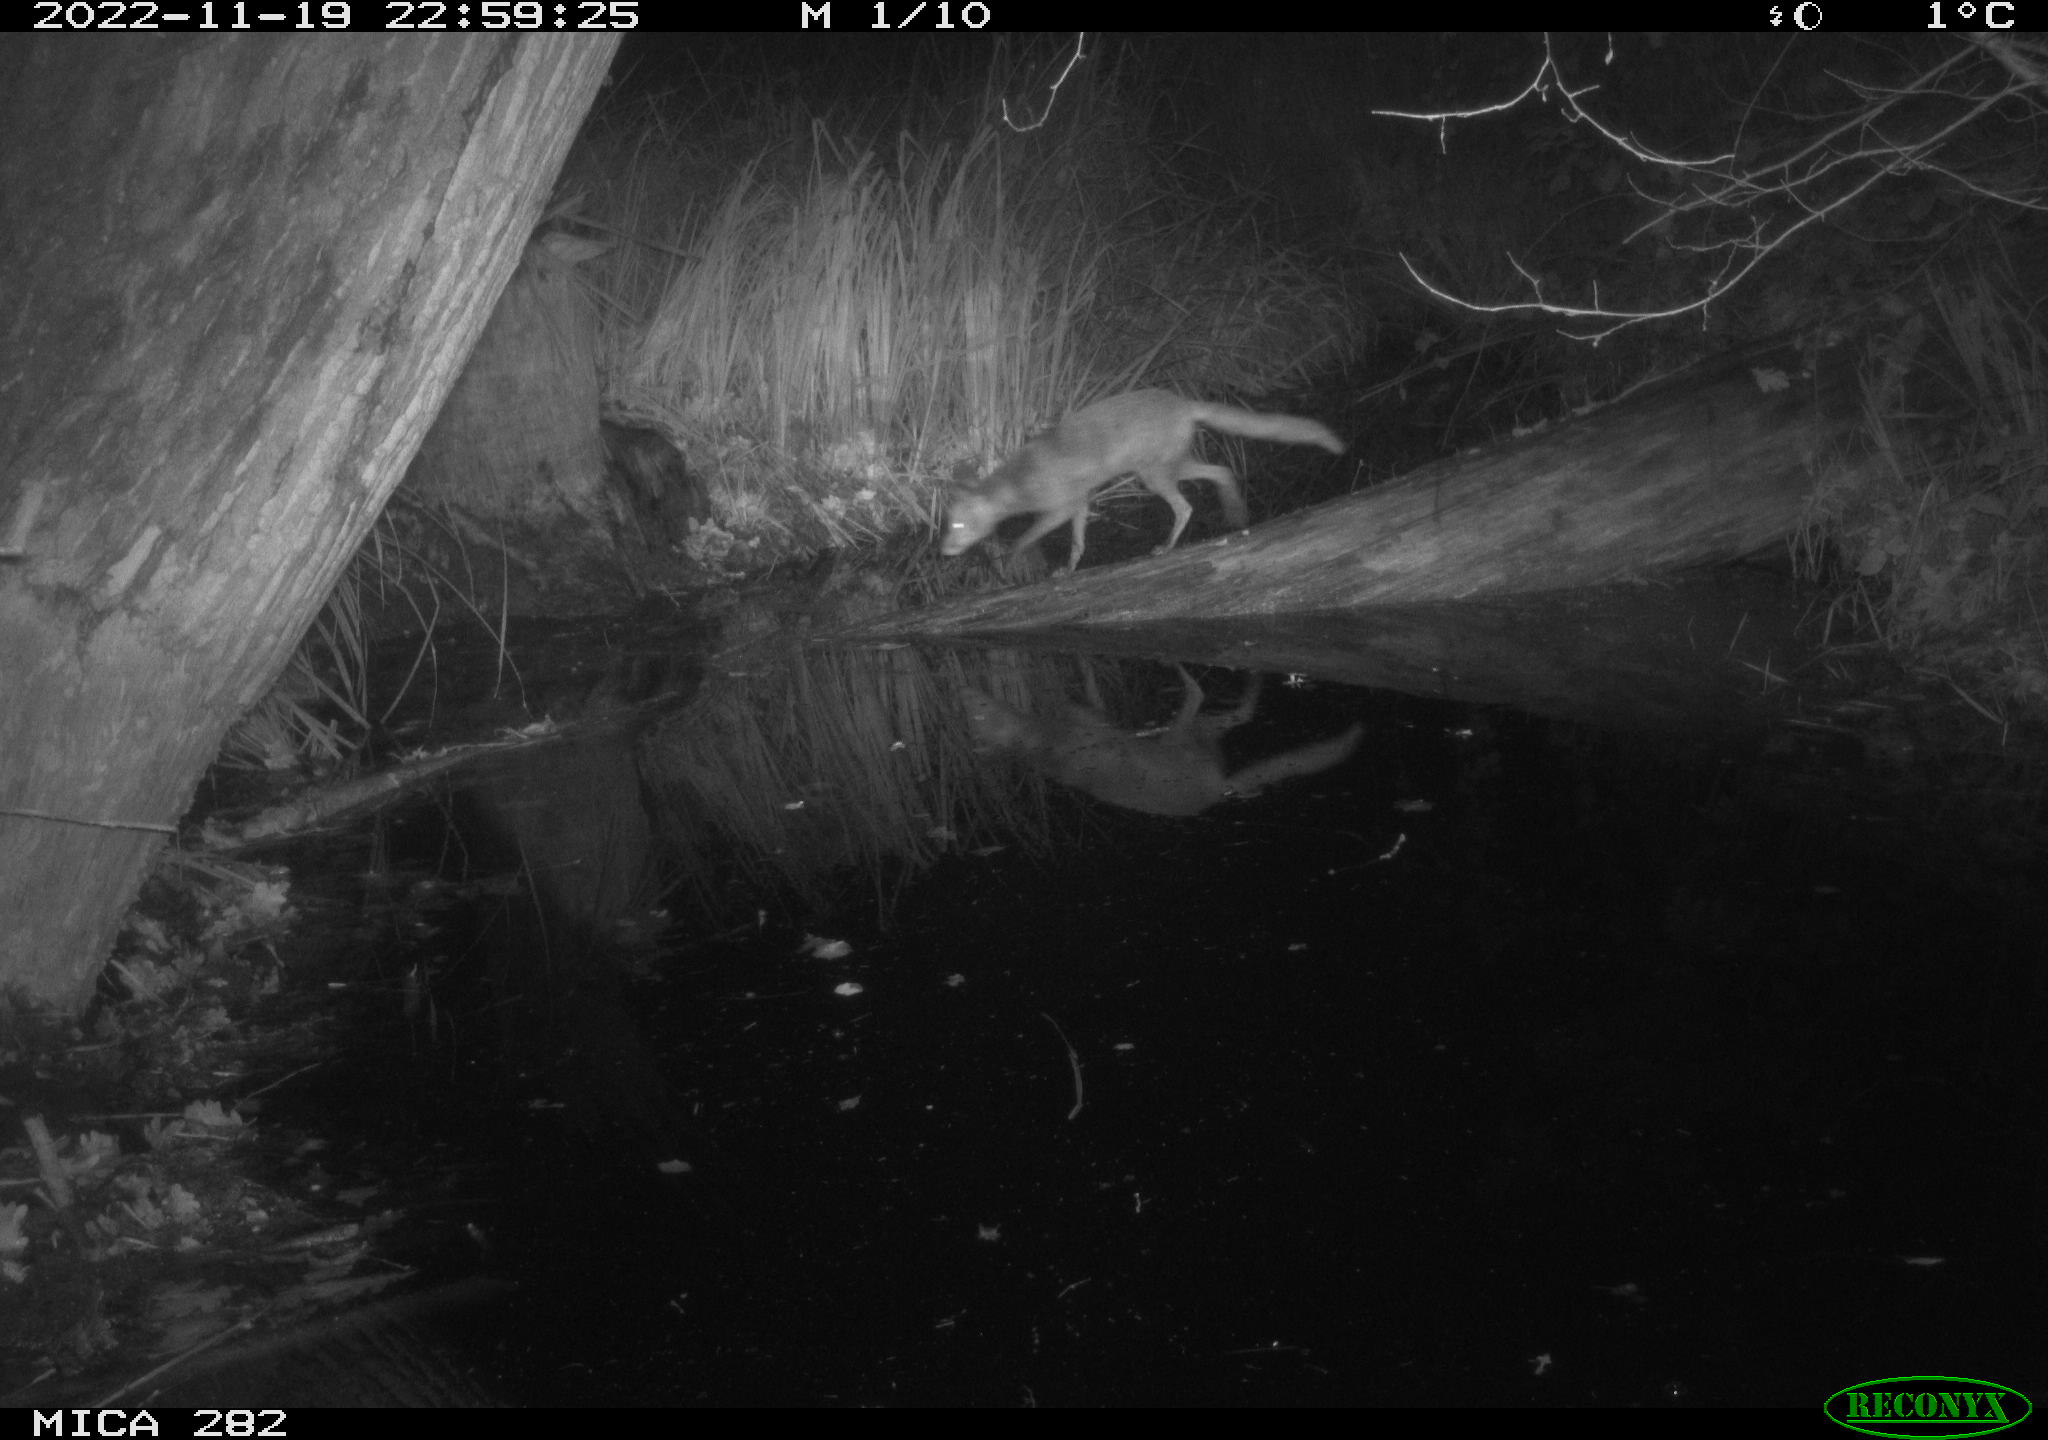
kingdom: Animalia
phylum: Chordata
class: Mammalia
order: Carnivora
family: Canidae
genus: Vulpes
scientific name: Vulpes vulpes
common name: Red fox
